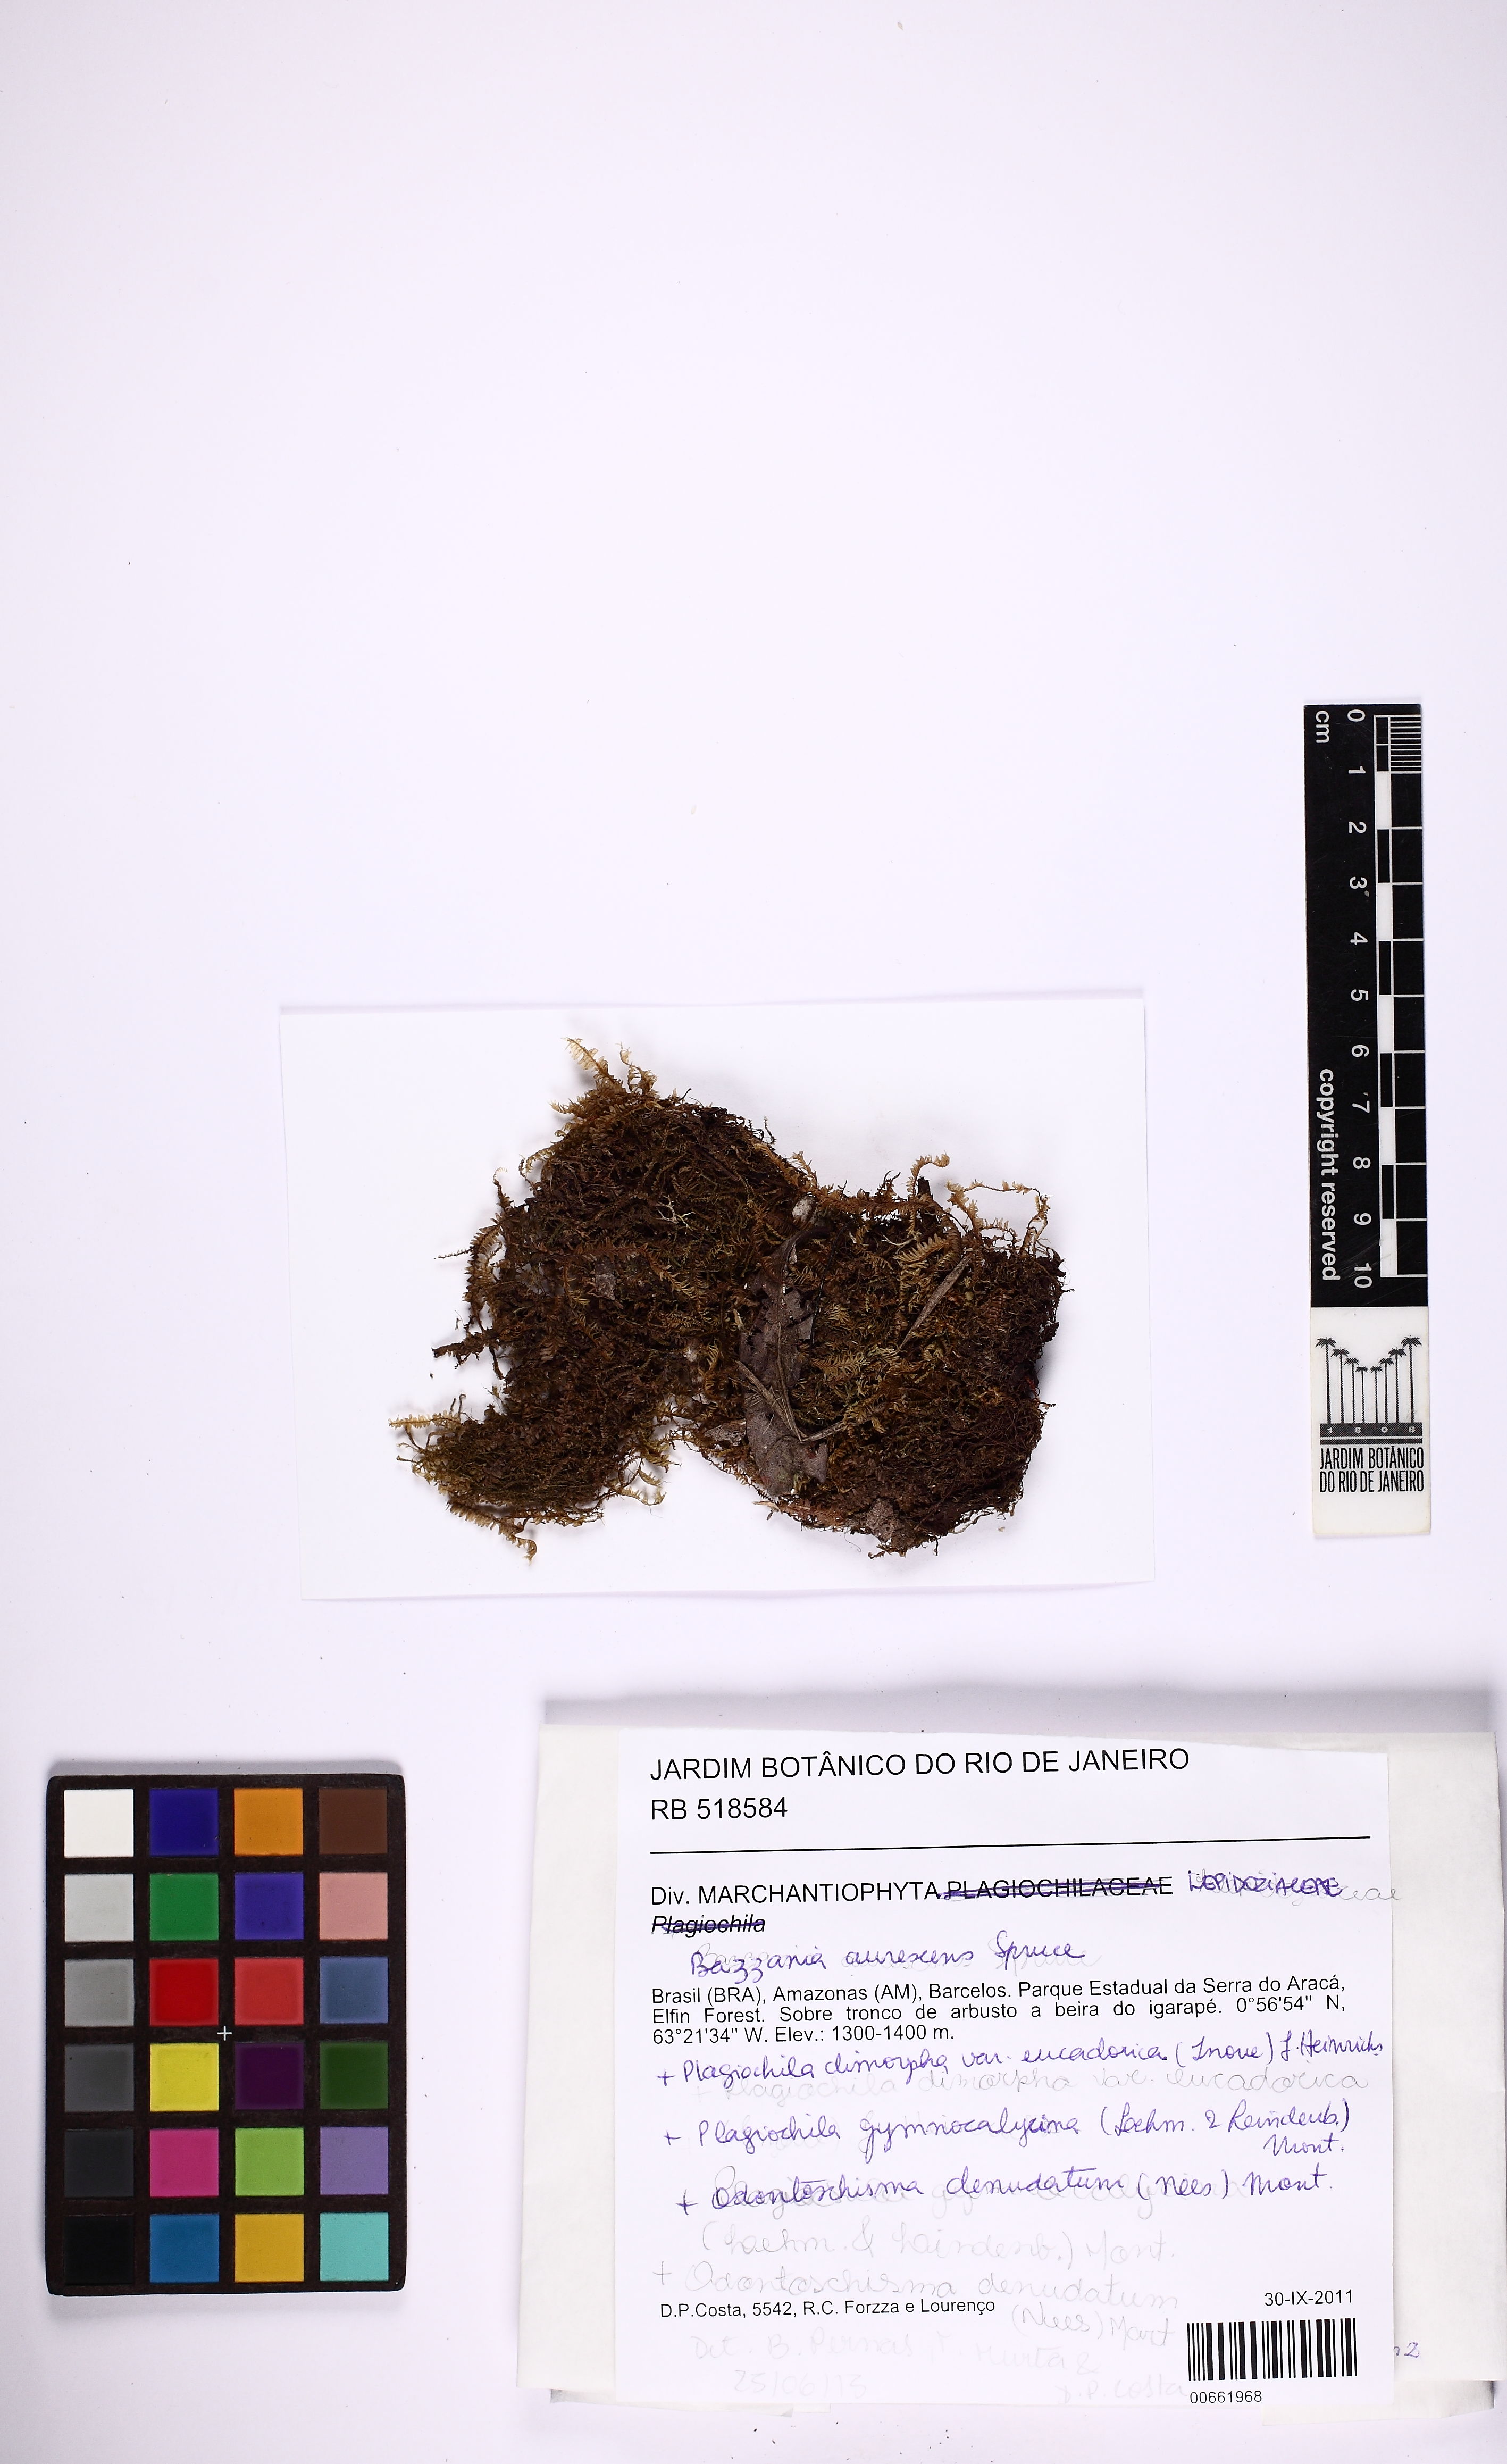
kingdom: Plantae
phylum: Marchantiophyta
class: Jungermanniopsida
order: Jungermanniales
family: Lepidoziaceae
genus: Bazzania
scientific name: Bazzania aurescens
